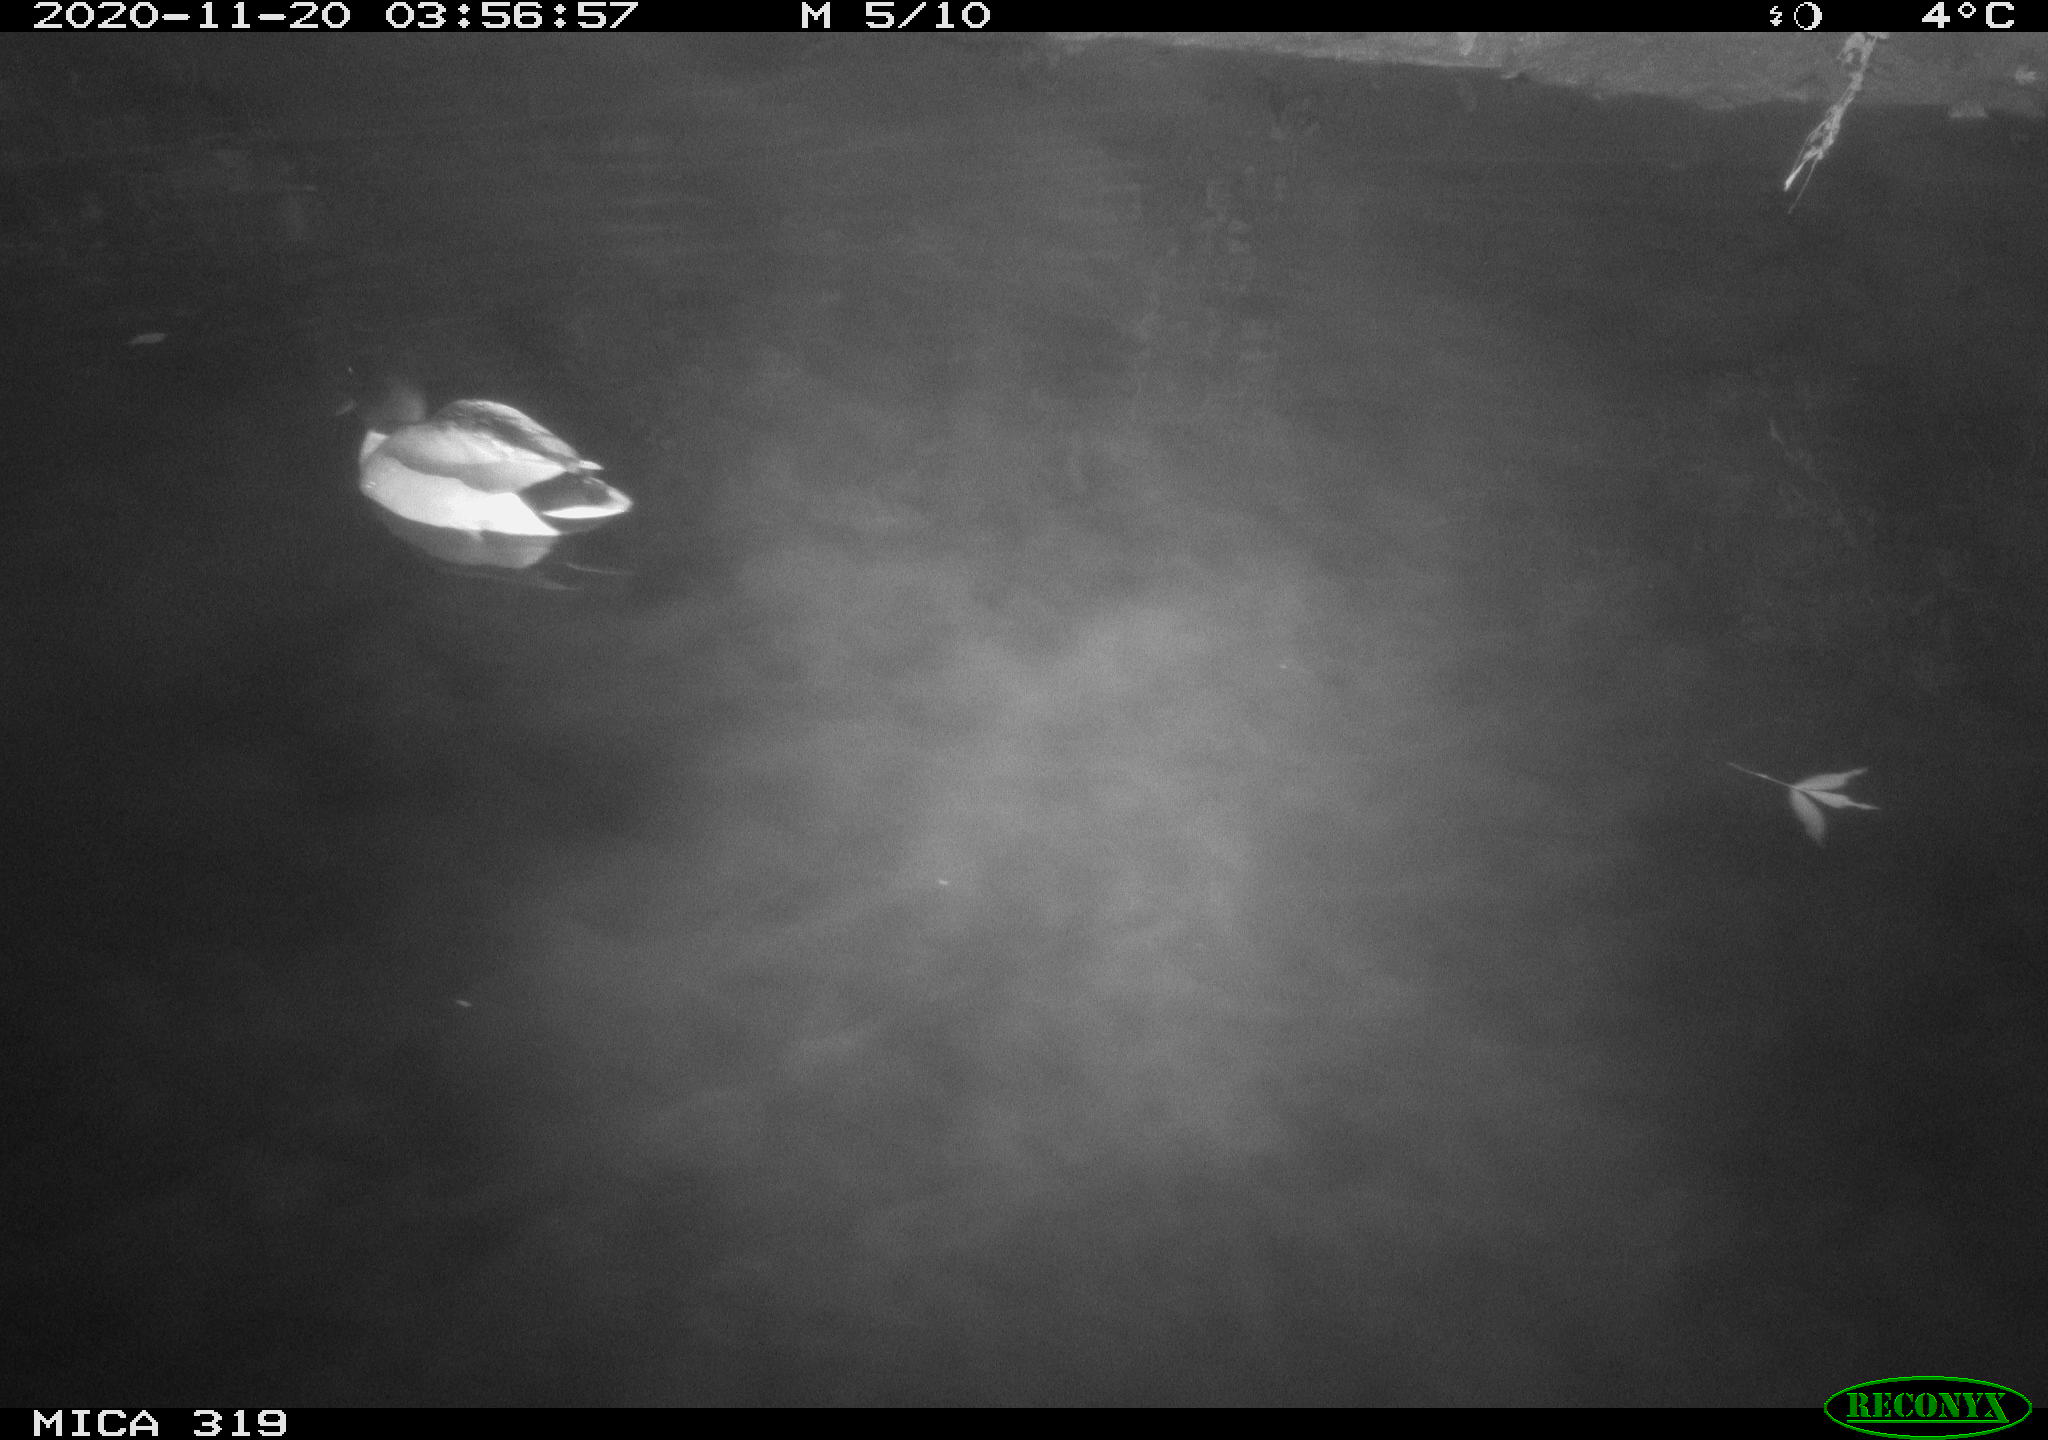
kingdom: Animalia
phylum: Chordata
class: Aves
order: Anseriformes
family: Anatidae
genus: Anas
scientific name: Anas platyrhynchos
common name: Mallard
